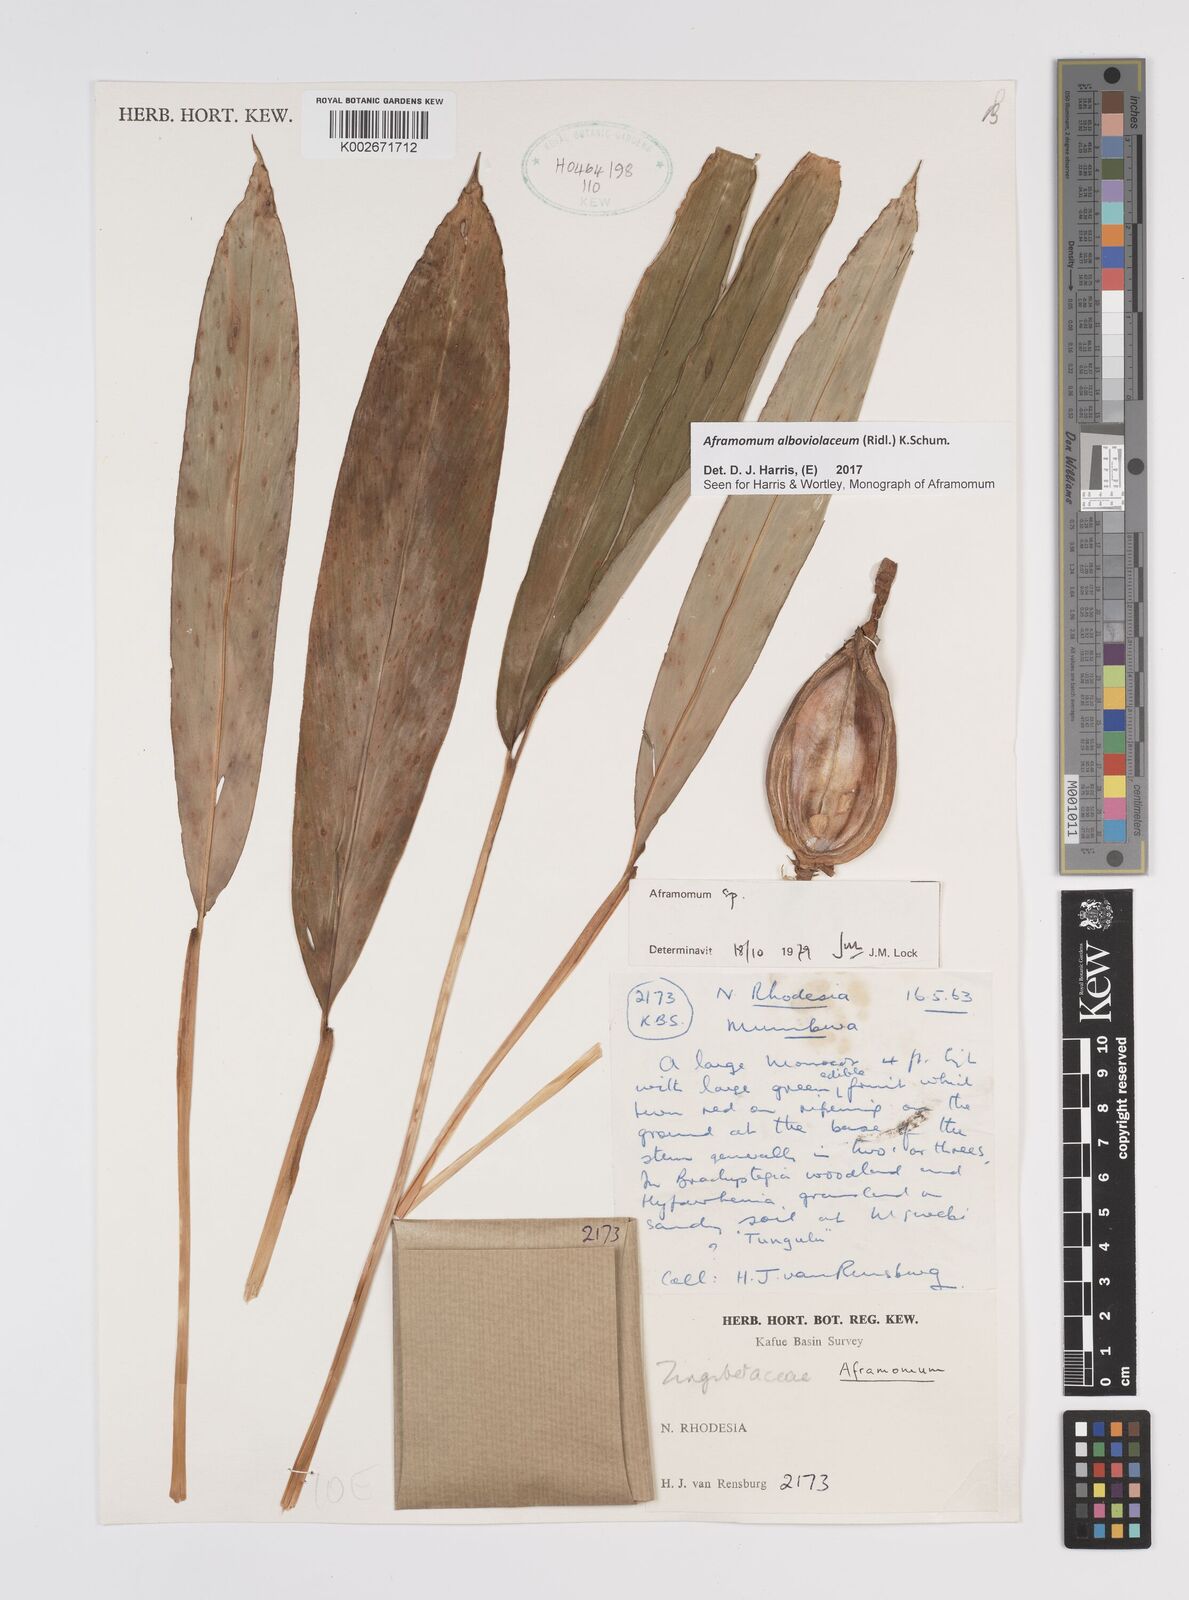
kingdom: Plantae
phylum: Tracheophyta
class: Liliopsida
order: Zingiberales
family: Zingiberaceae
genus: Aframomum
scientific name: Aframomum alboviolaceum
